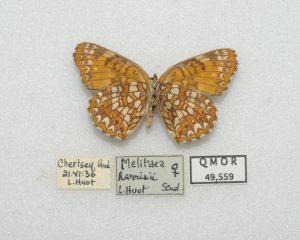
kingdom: Animalia
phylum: Arthropoda
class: Insecta
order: Lepidoptera
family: Nymphalidae
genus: Chlosyne
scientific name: Chlosyne harrisii
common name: Harris's Checkerspot
